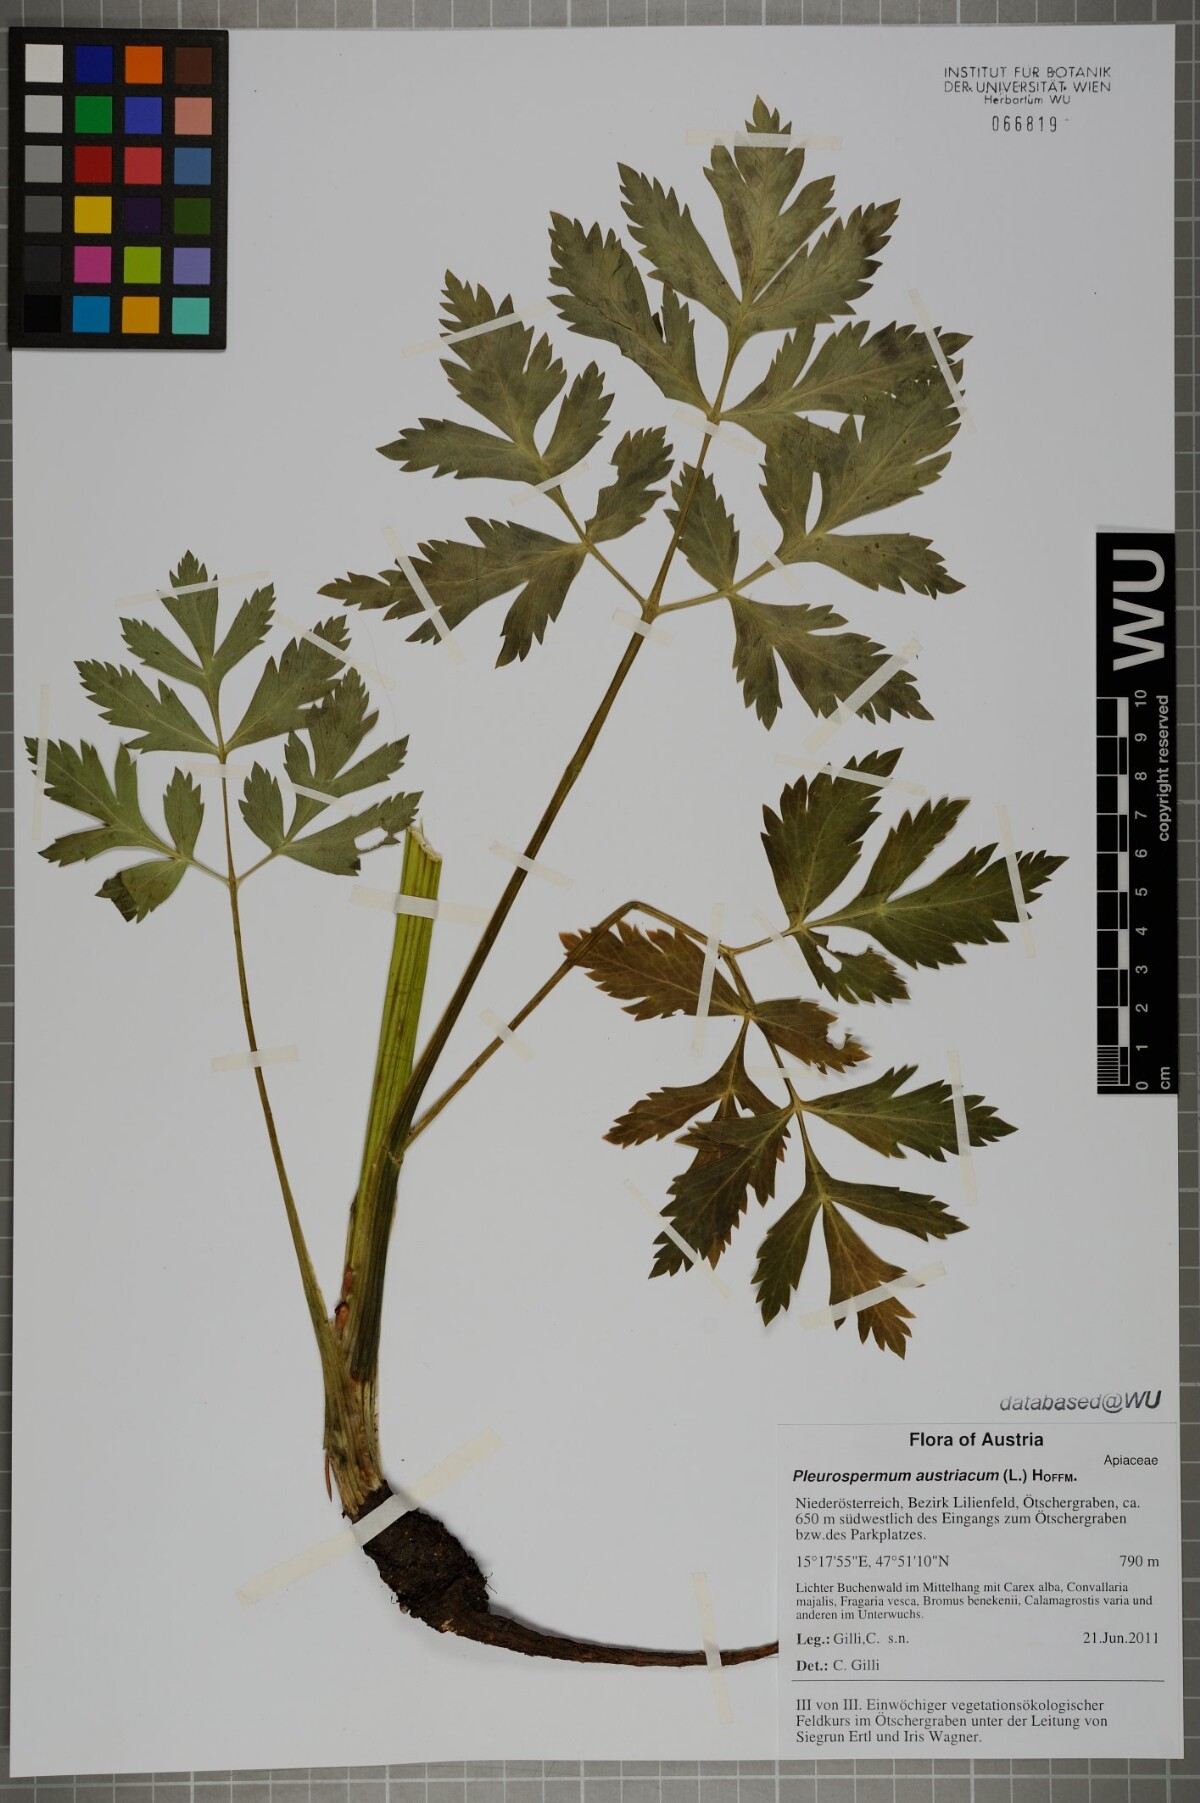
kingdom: Plantae
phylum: Tracheophyta
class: Magnoliopsida
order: Apiales
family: Apiaceae
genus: Pleurospermum
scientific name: Pleurospermum austriacum
